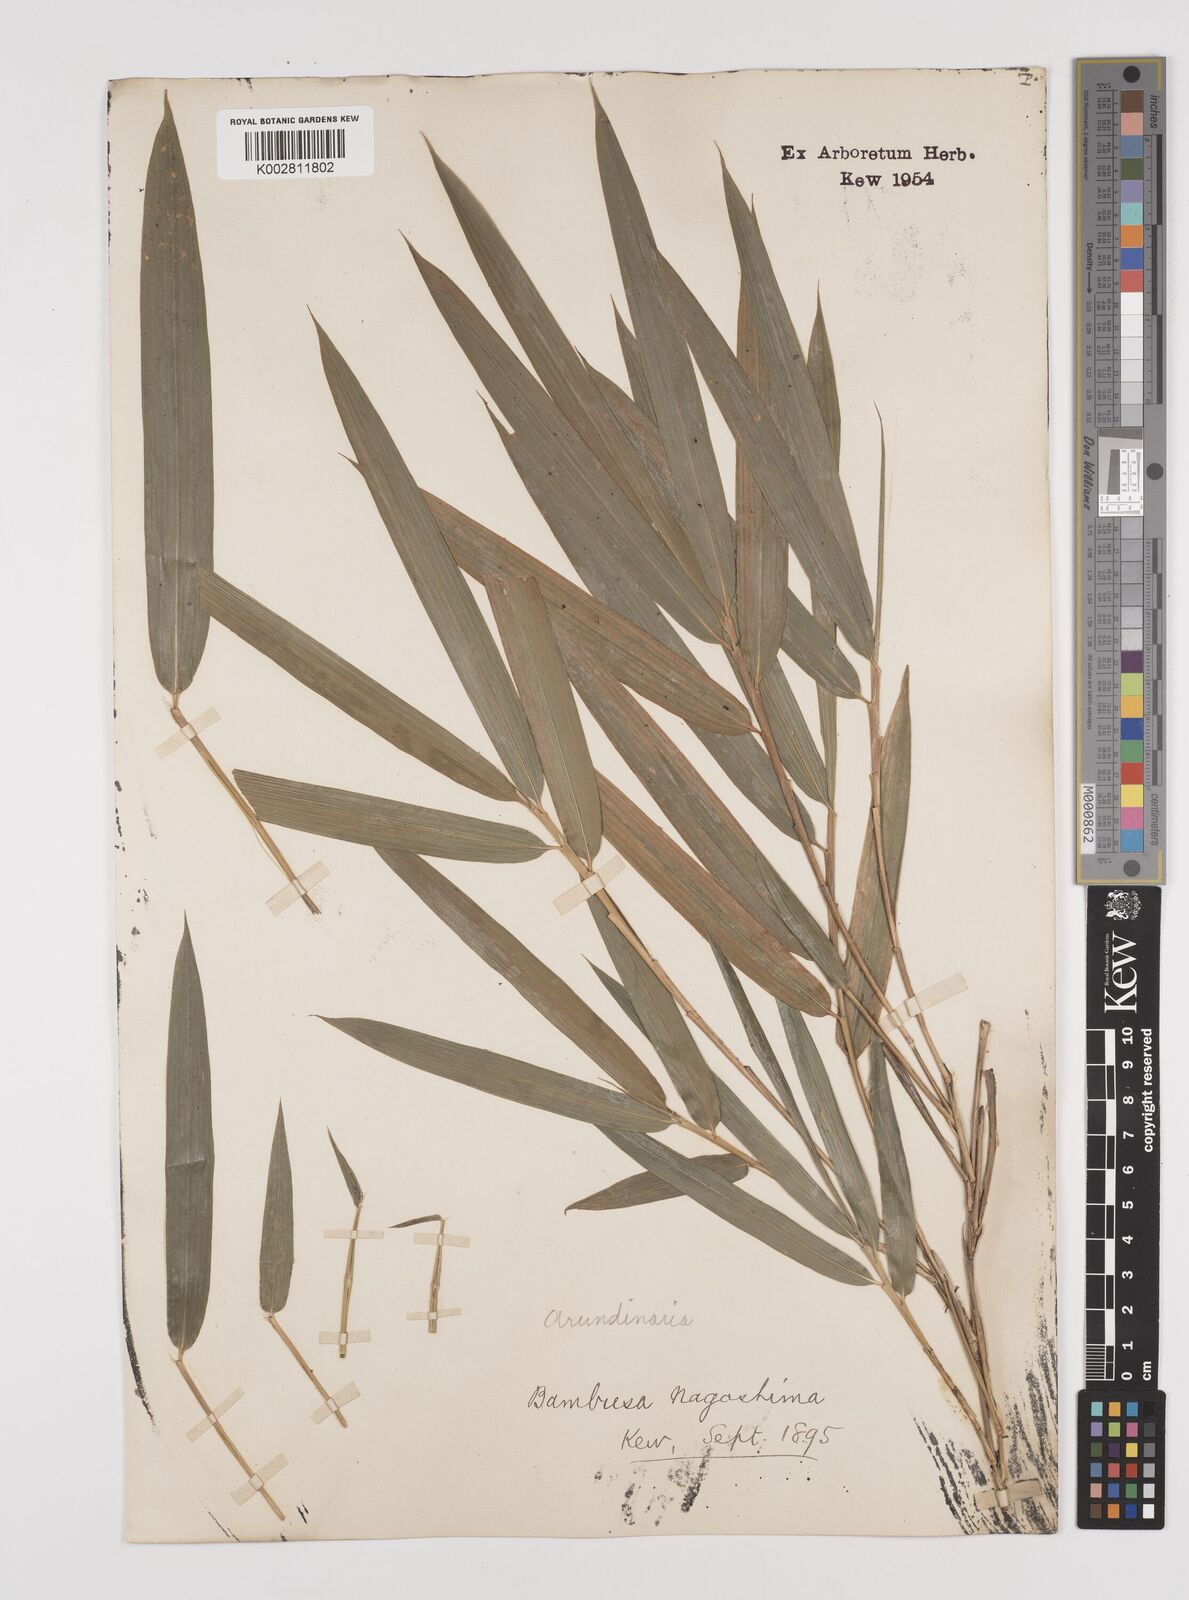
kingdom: Plantae
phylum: Tracheophyta
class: Liliopsida
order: Poales
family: Poaceae
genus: Pseudosasa
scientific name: Pseudosasa humilis
